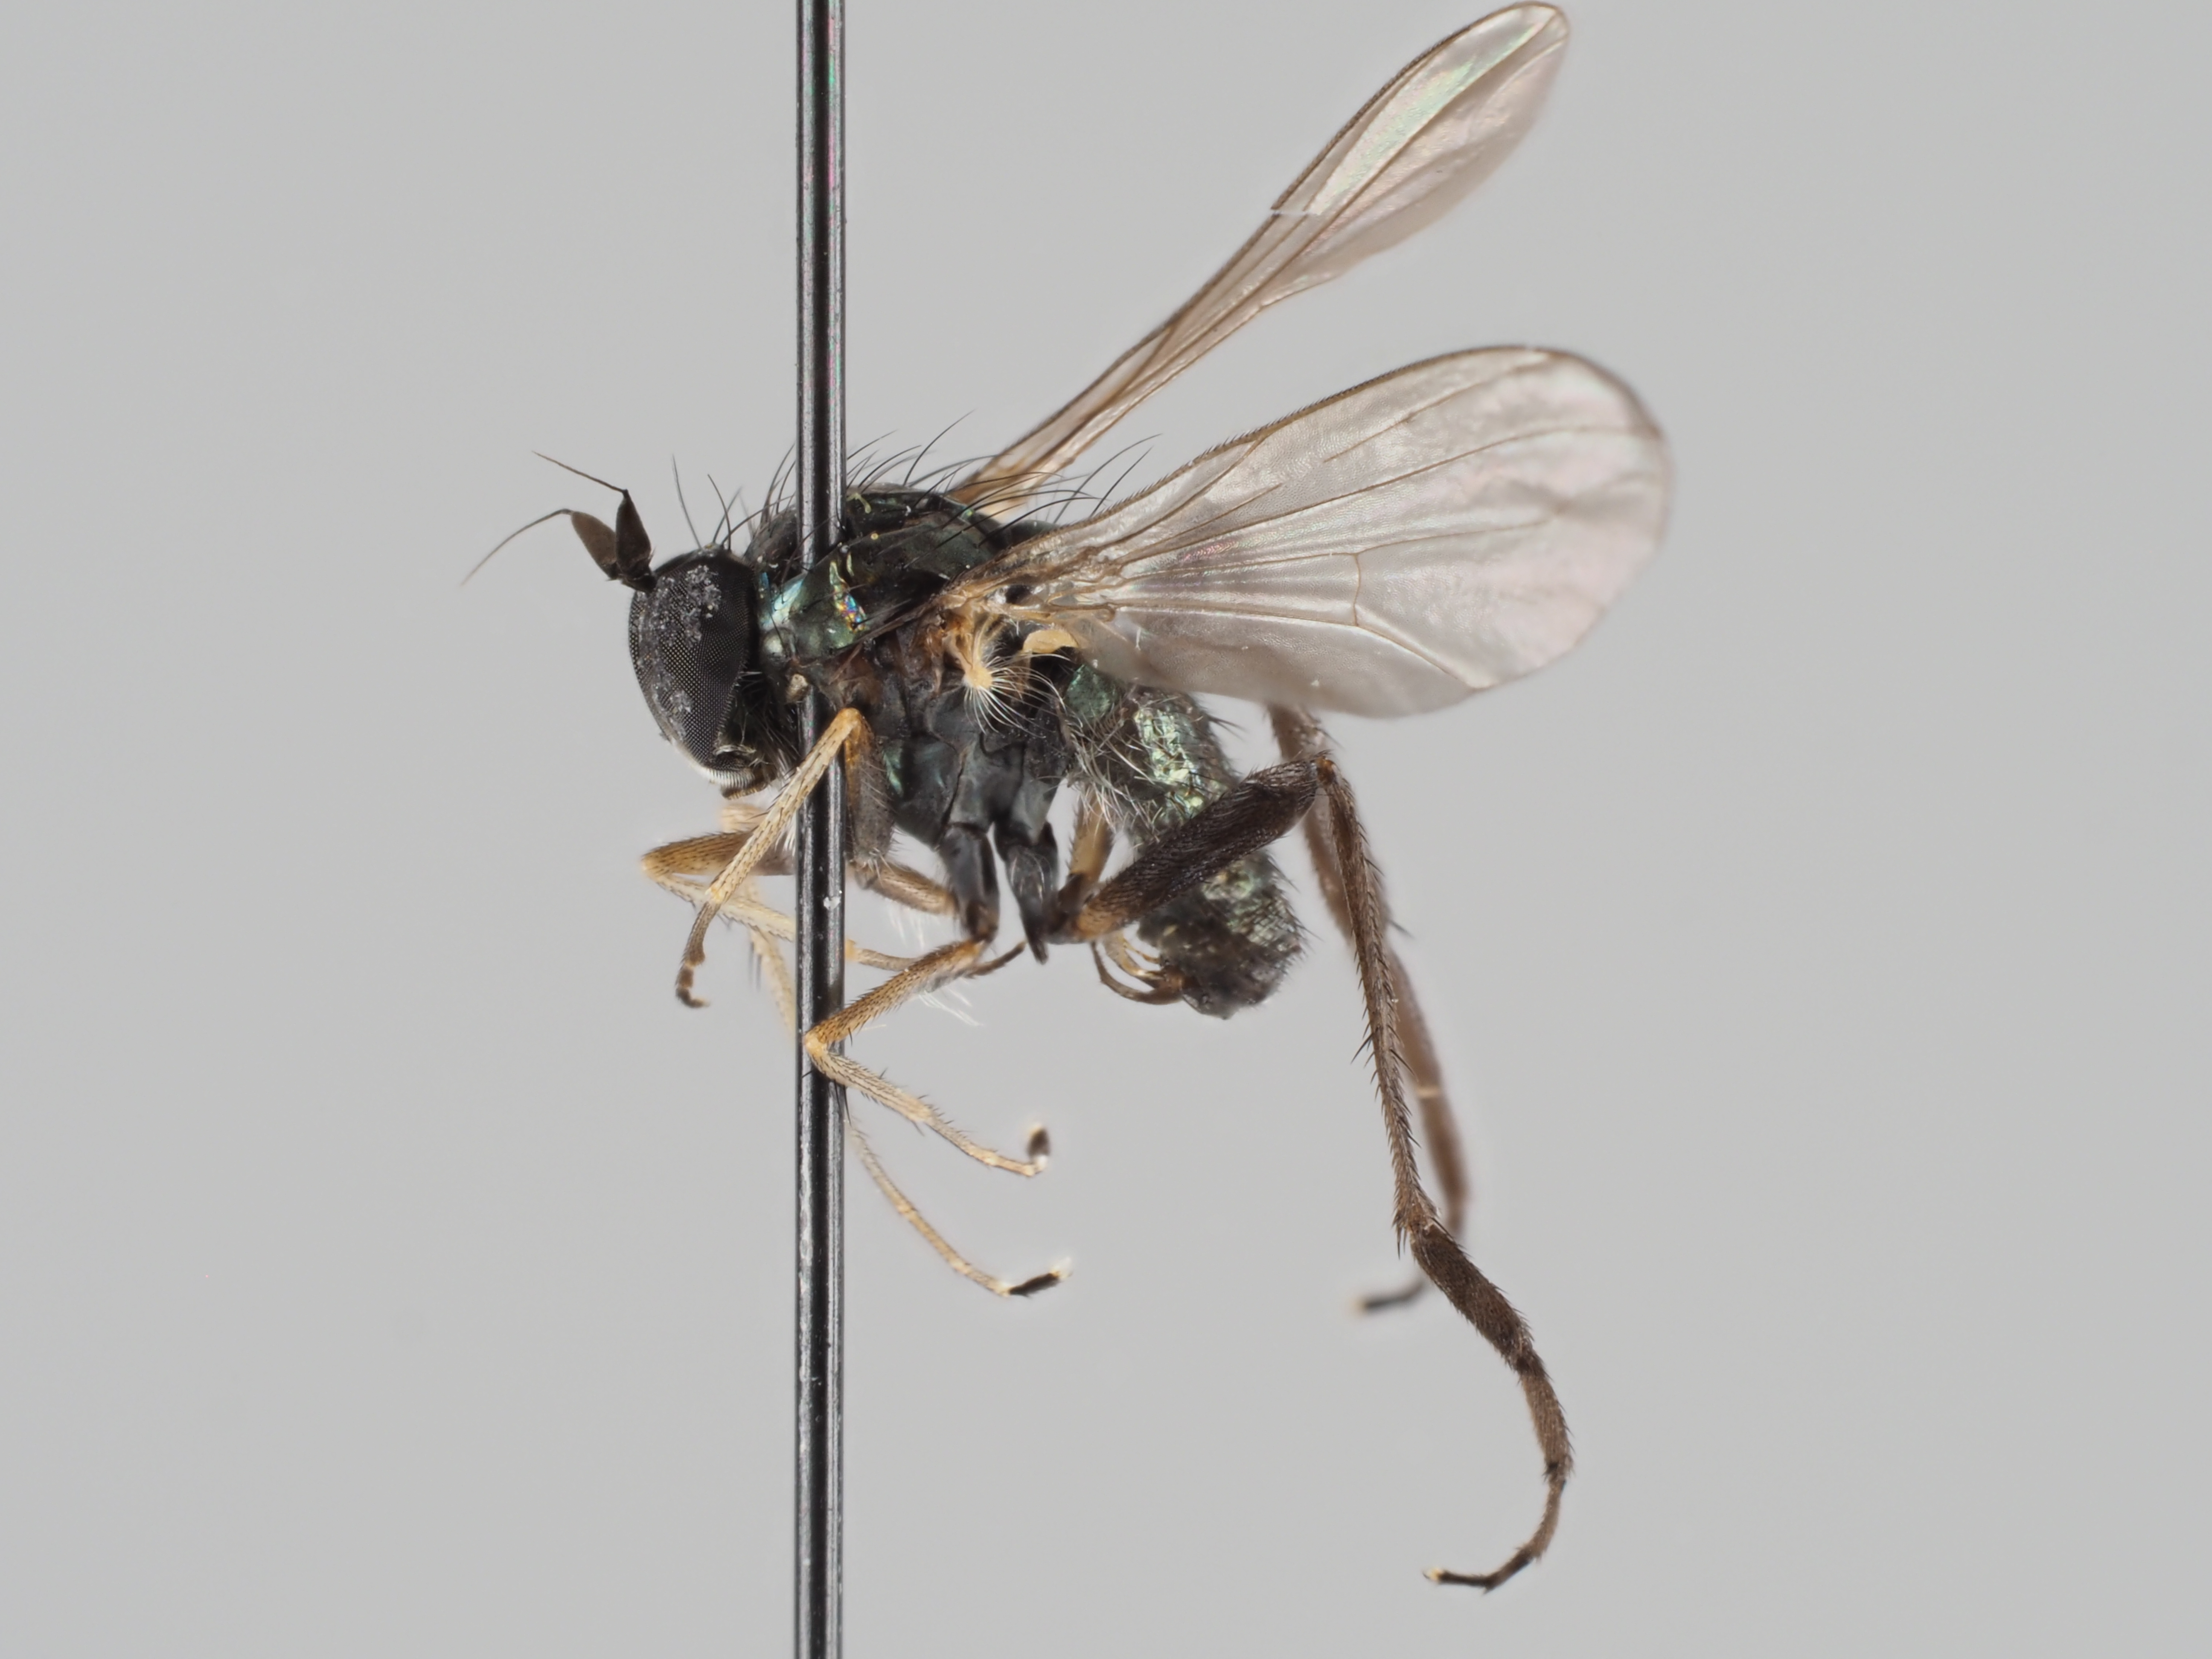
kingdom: Animalia
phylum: Arthropoda
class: Insecta
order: Diptera
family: Dolichopodidae
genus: Rhaphium
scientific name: Rhaphium crassipes
